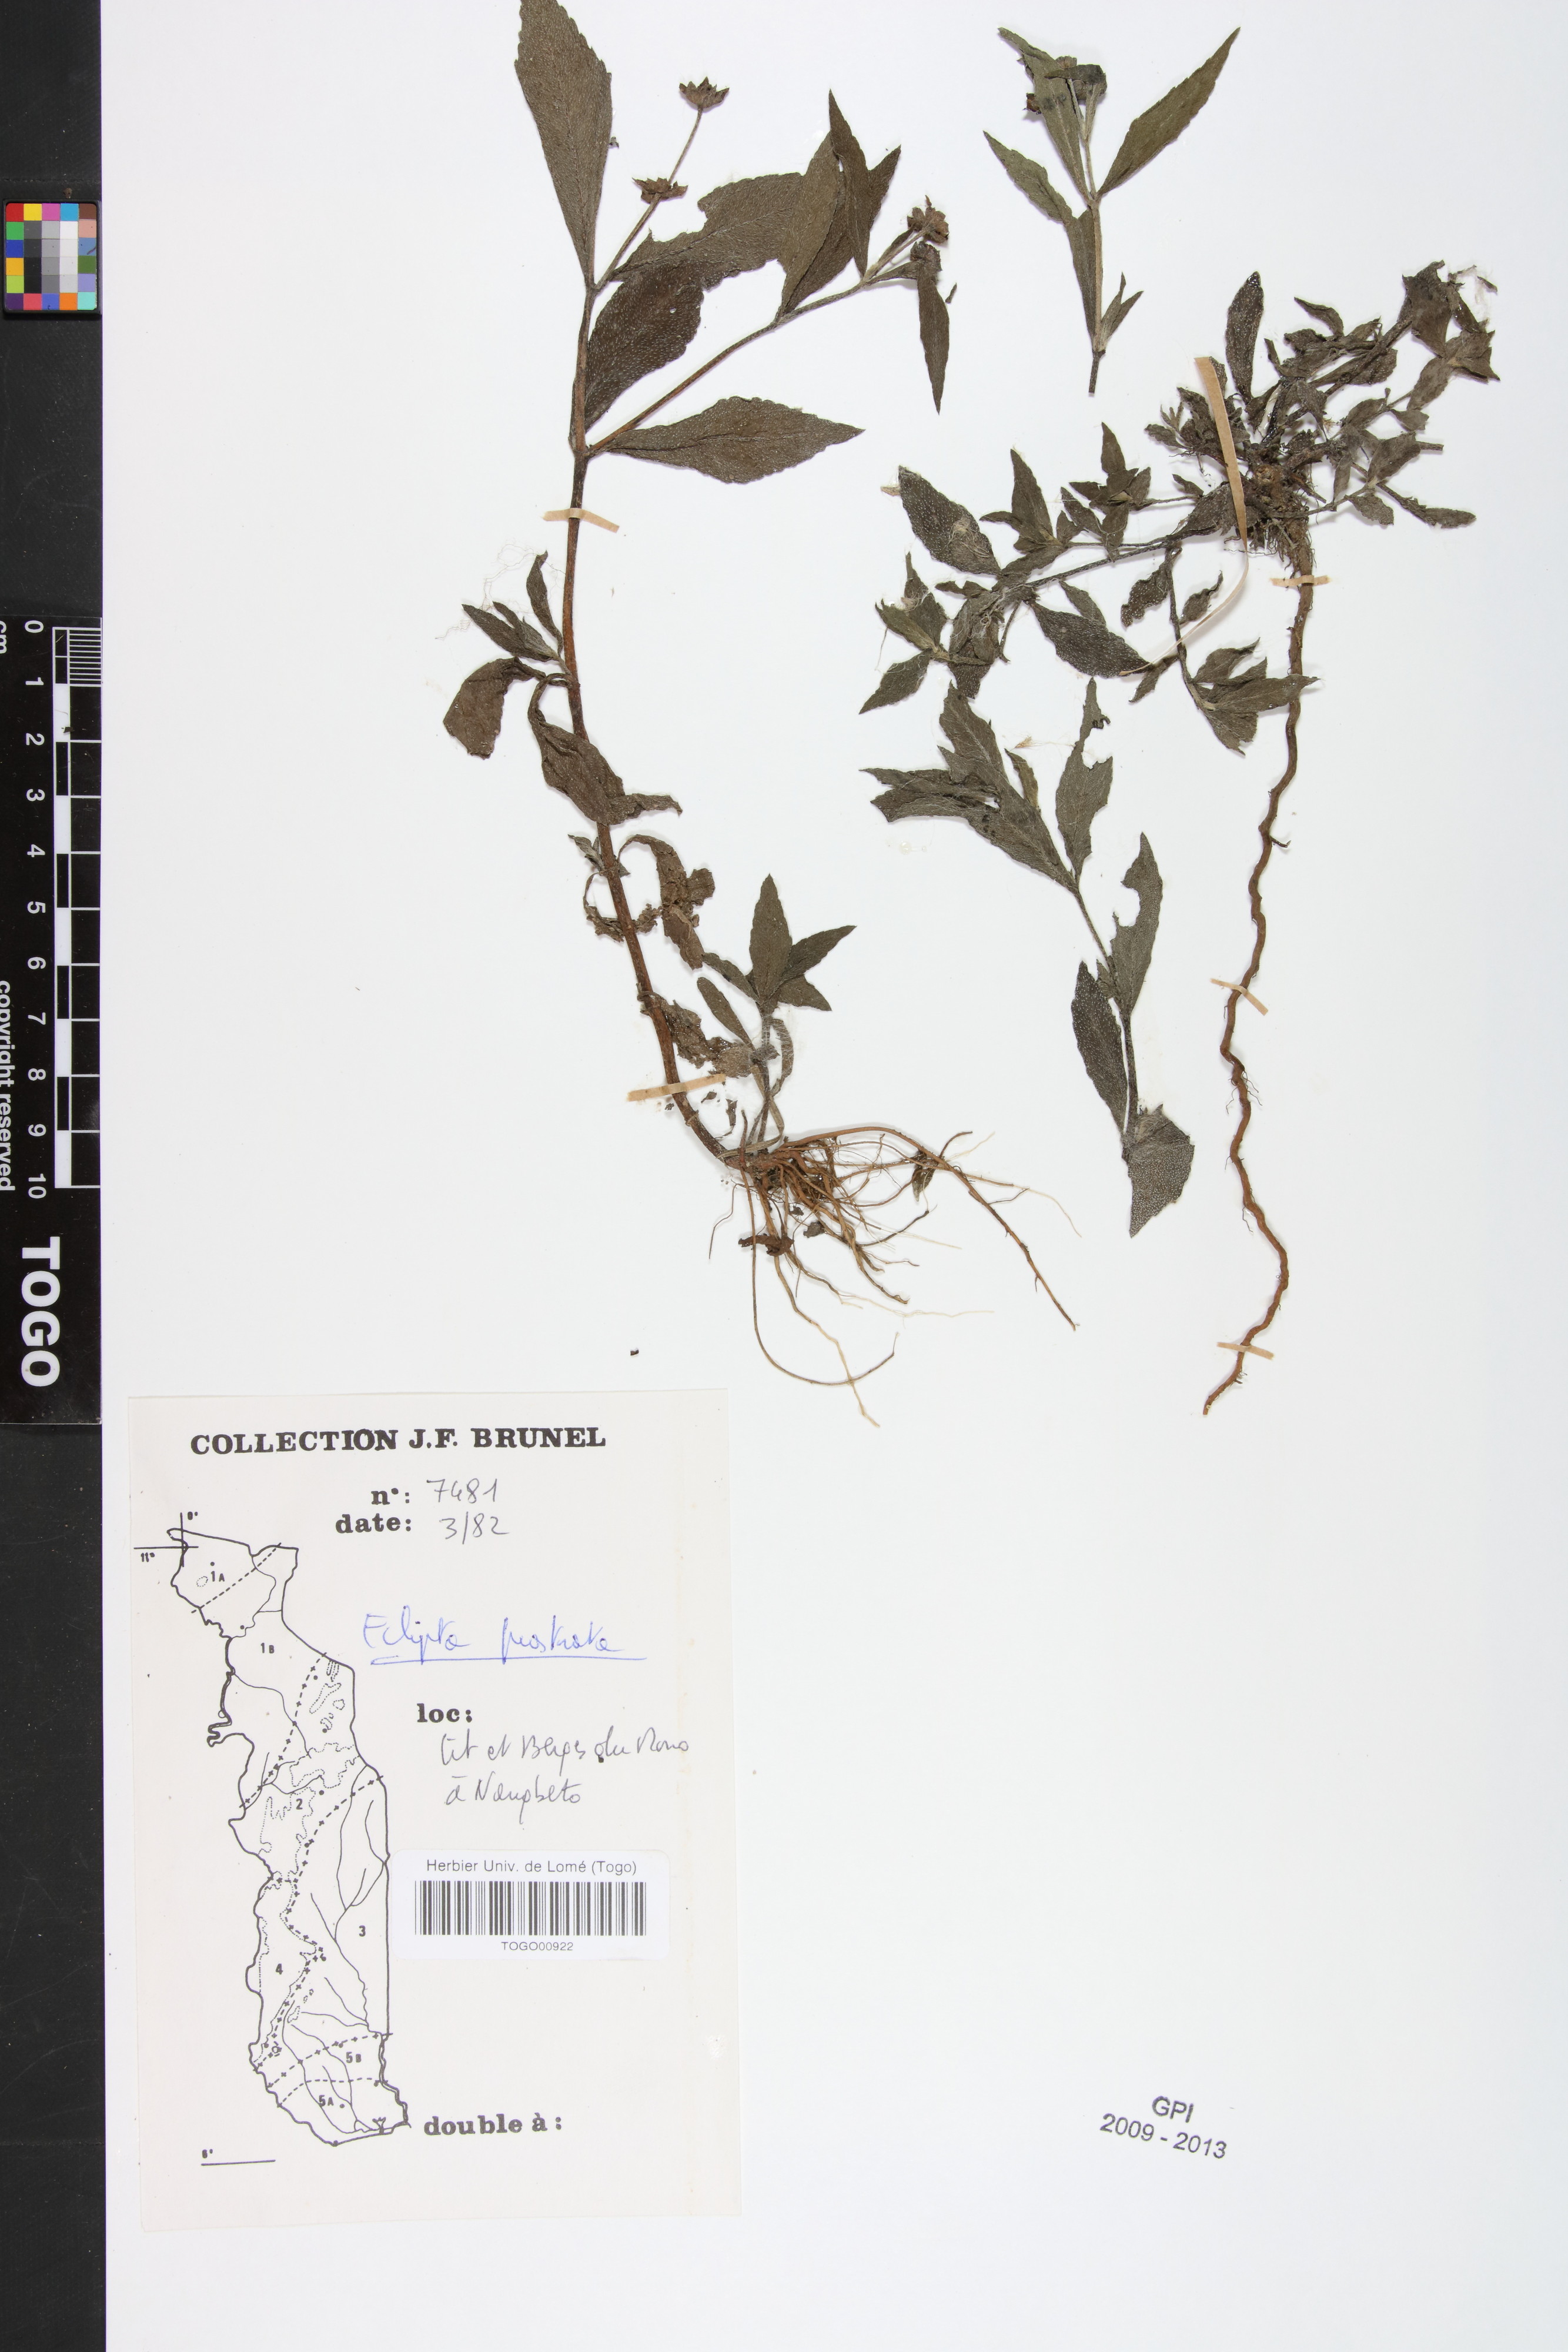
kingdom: Plantae
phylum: Tracheophyta
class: Magnoliopsida
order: Asterales
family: Asteraceae
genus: Eclipta
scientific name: Eclipta prostrata
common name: False daisy
